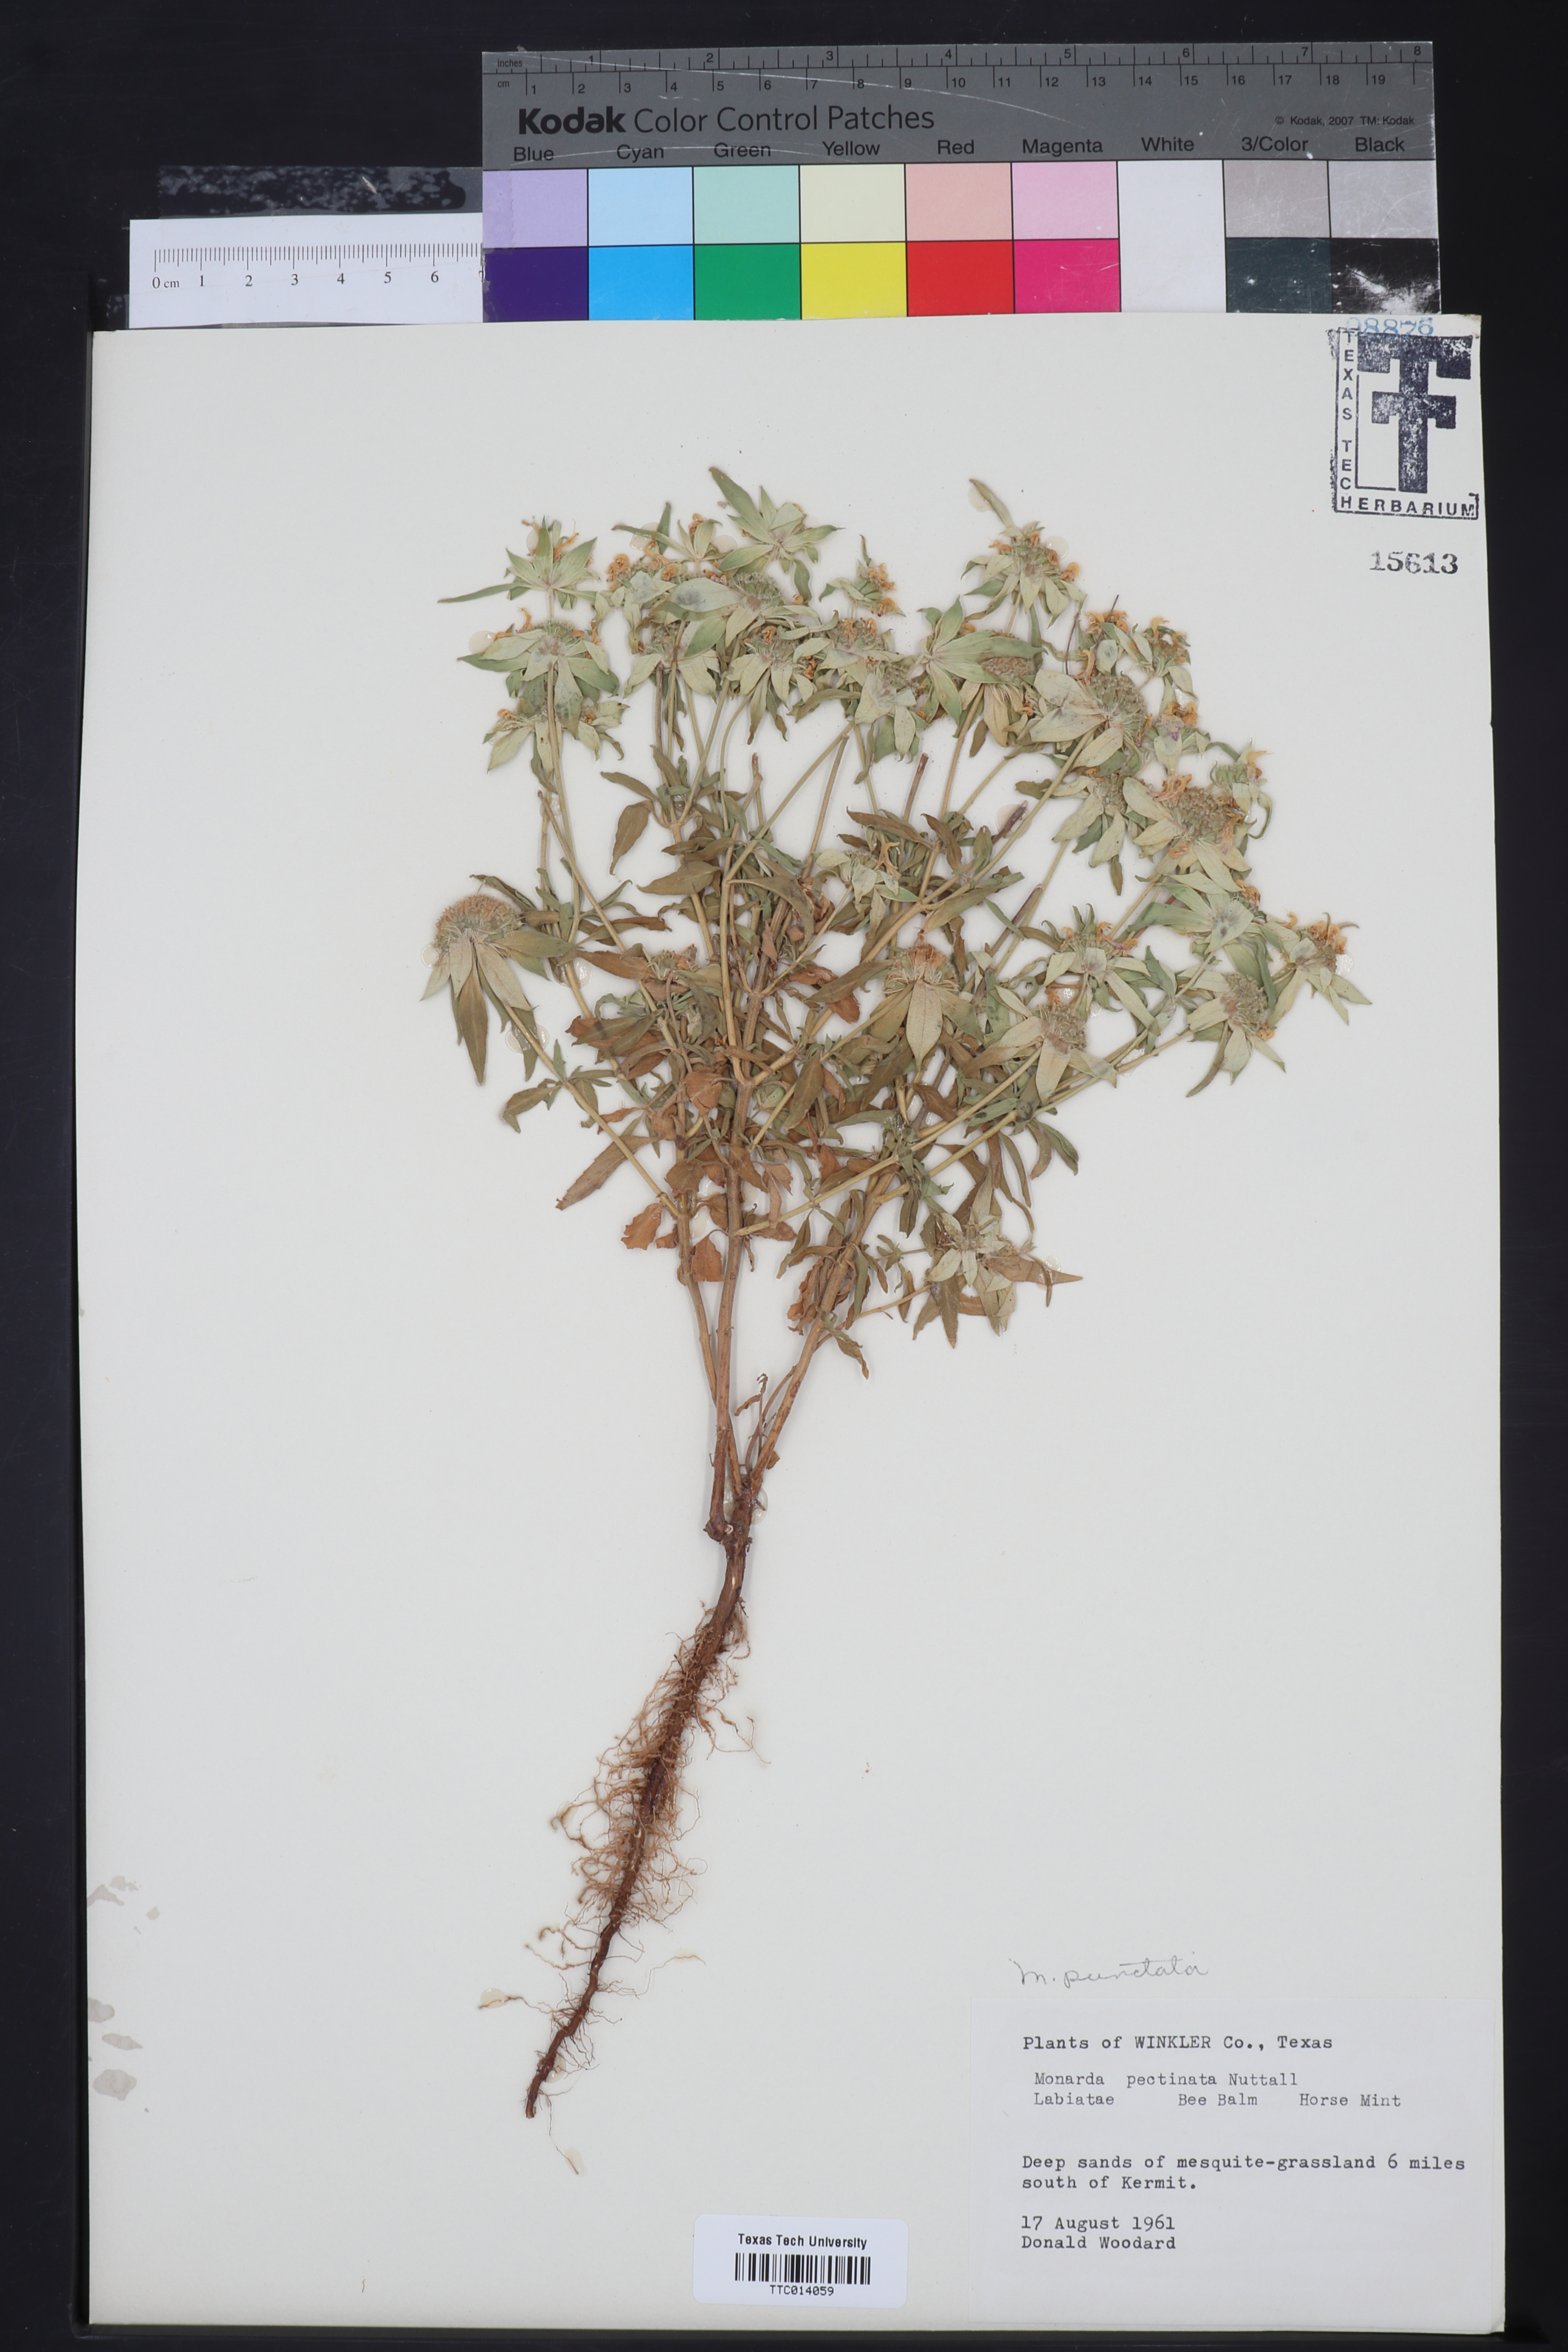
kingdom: Plantae
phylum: Tracheophyta
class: Magnoliopsida
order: Lamiales
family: Lamiaceae
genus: Monarda
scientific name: Monarda punctata
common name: Dotted monarda
